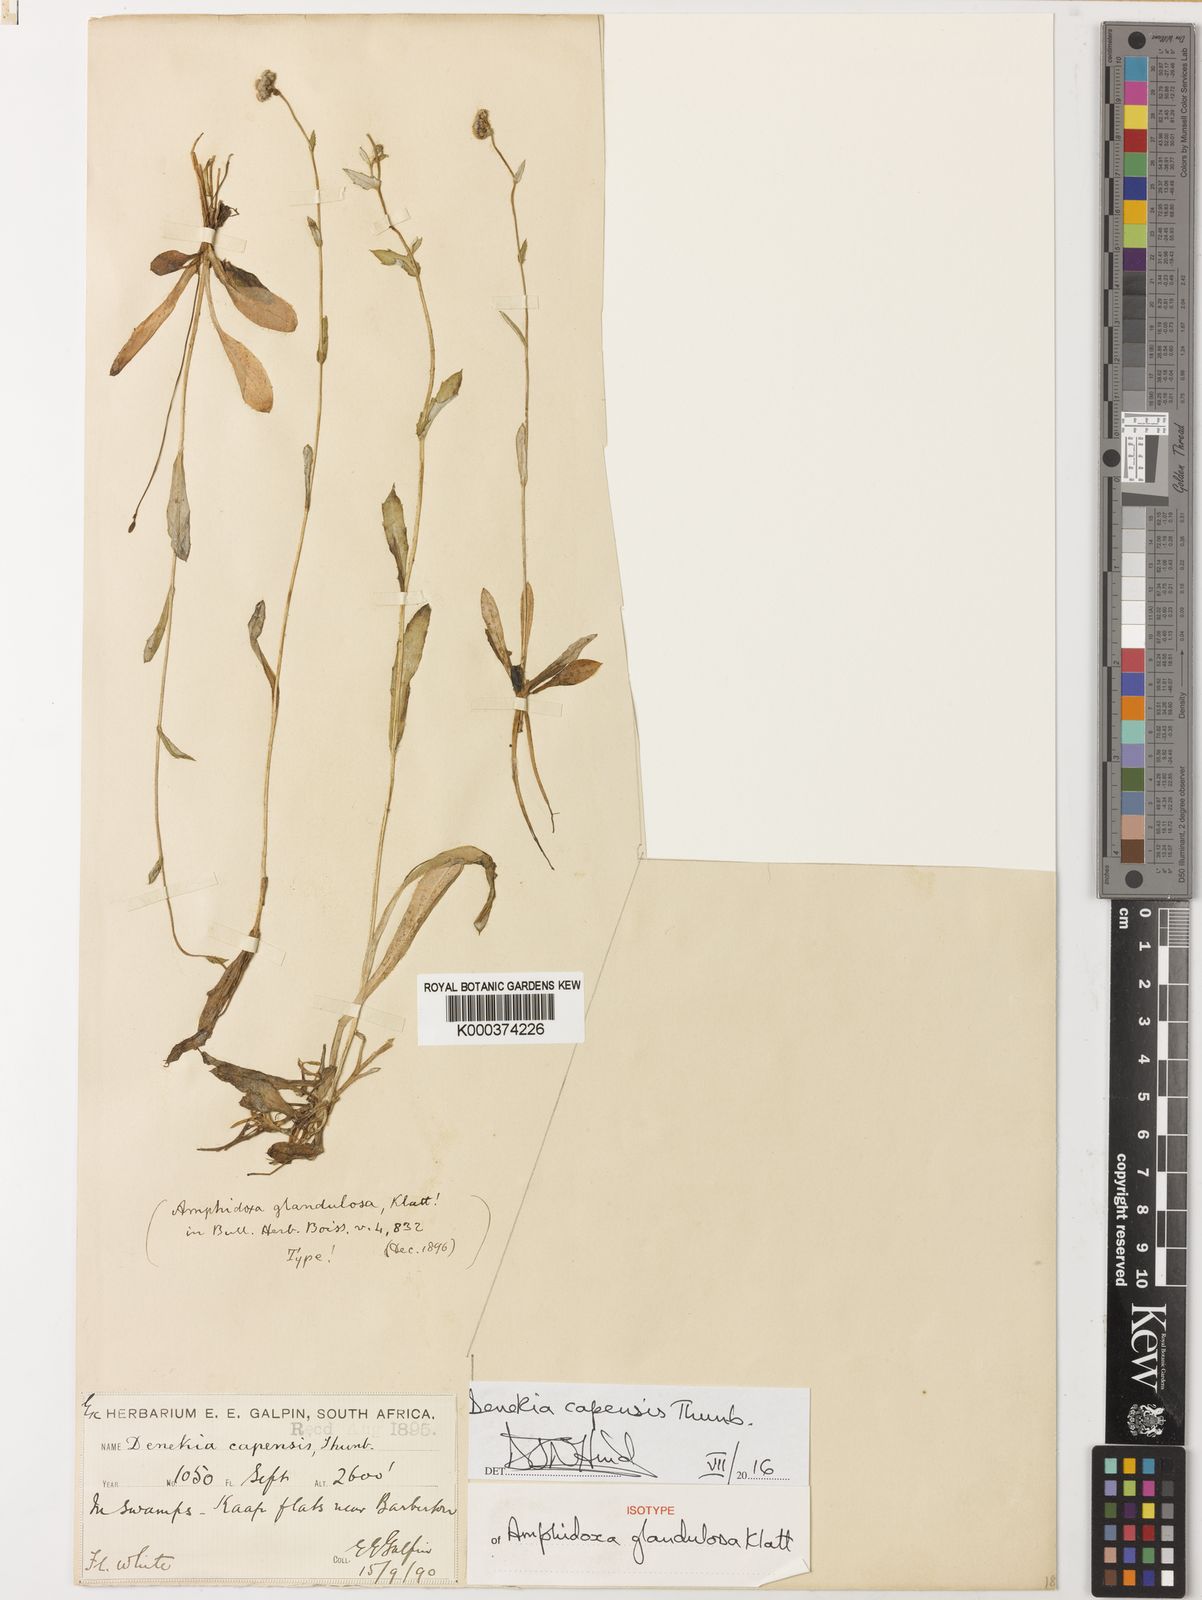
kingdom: Plantae
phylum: Tracheophyta
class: Magnoliopsida
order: Asterales
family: Asteraceae
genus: Denekia
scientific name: Denekia capensis
